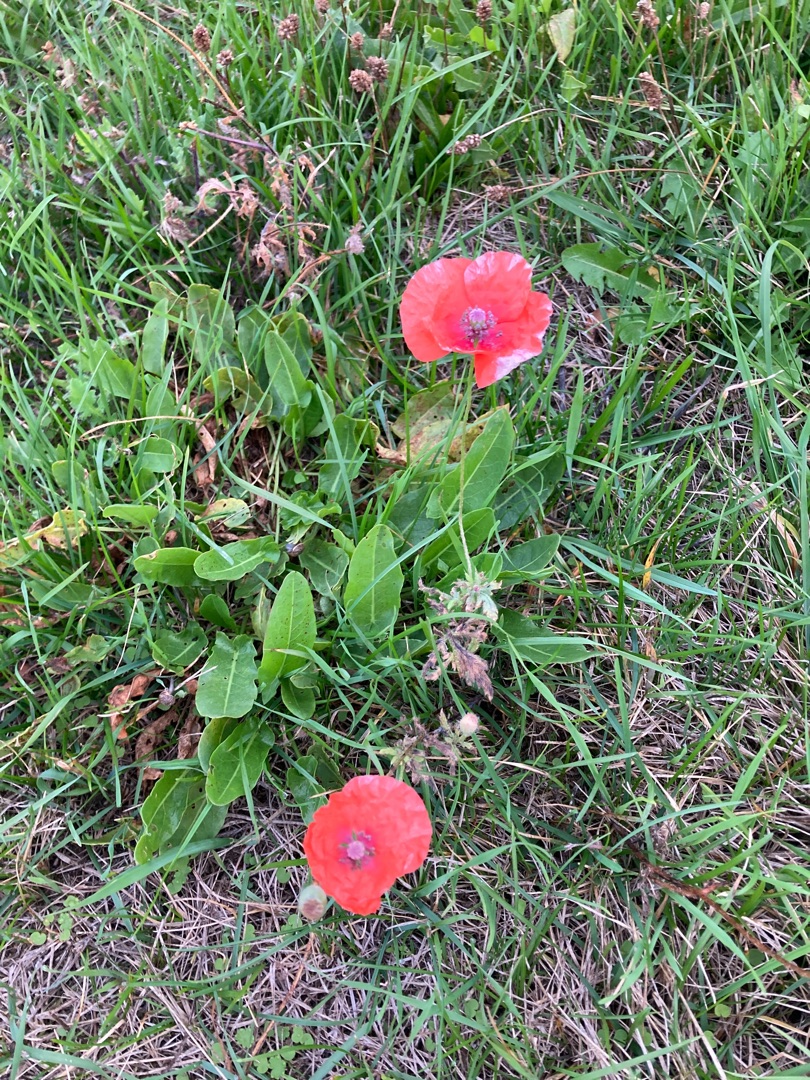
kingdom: Plantae
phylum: Tracheophyta
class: Magnoliopsida
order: Ranunculales
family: Papaveraceae
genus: Papaver
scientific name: Papaver rhoeas
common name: Korn-valmue
